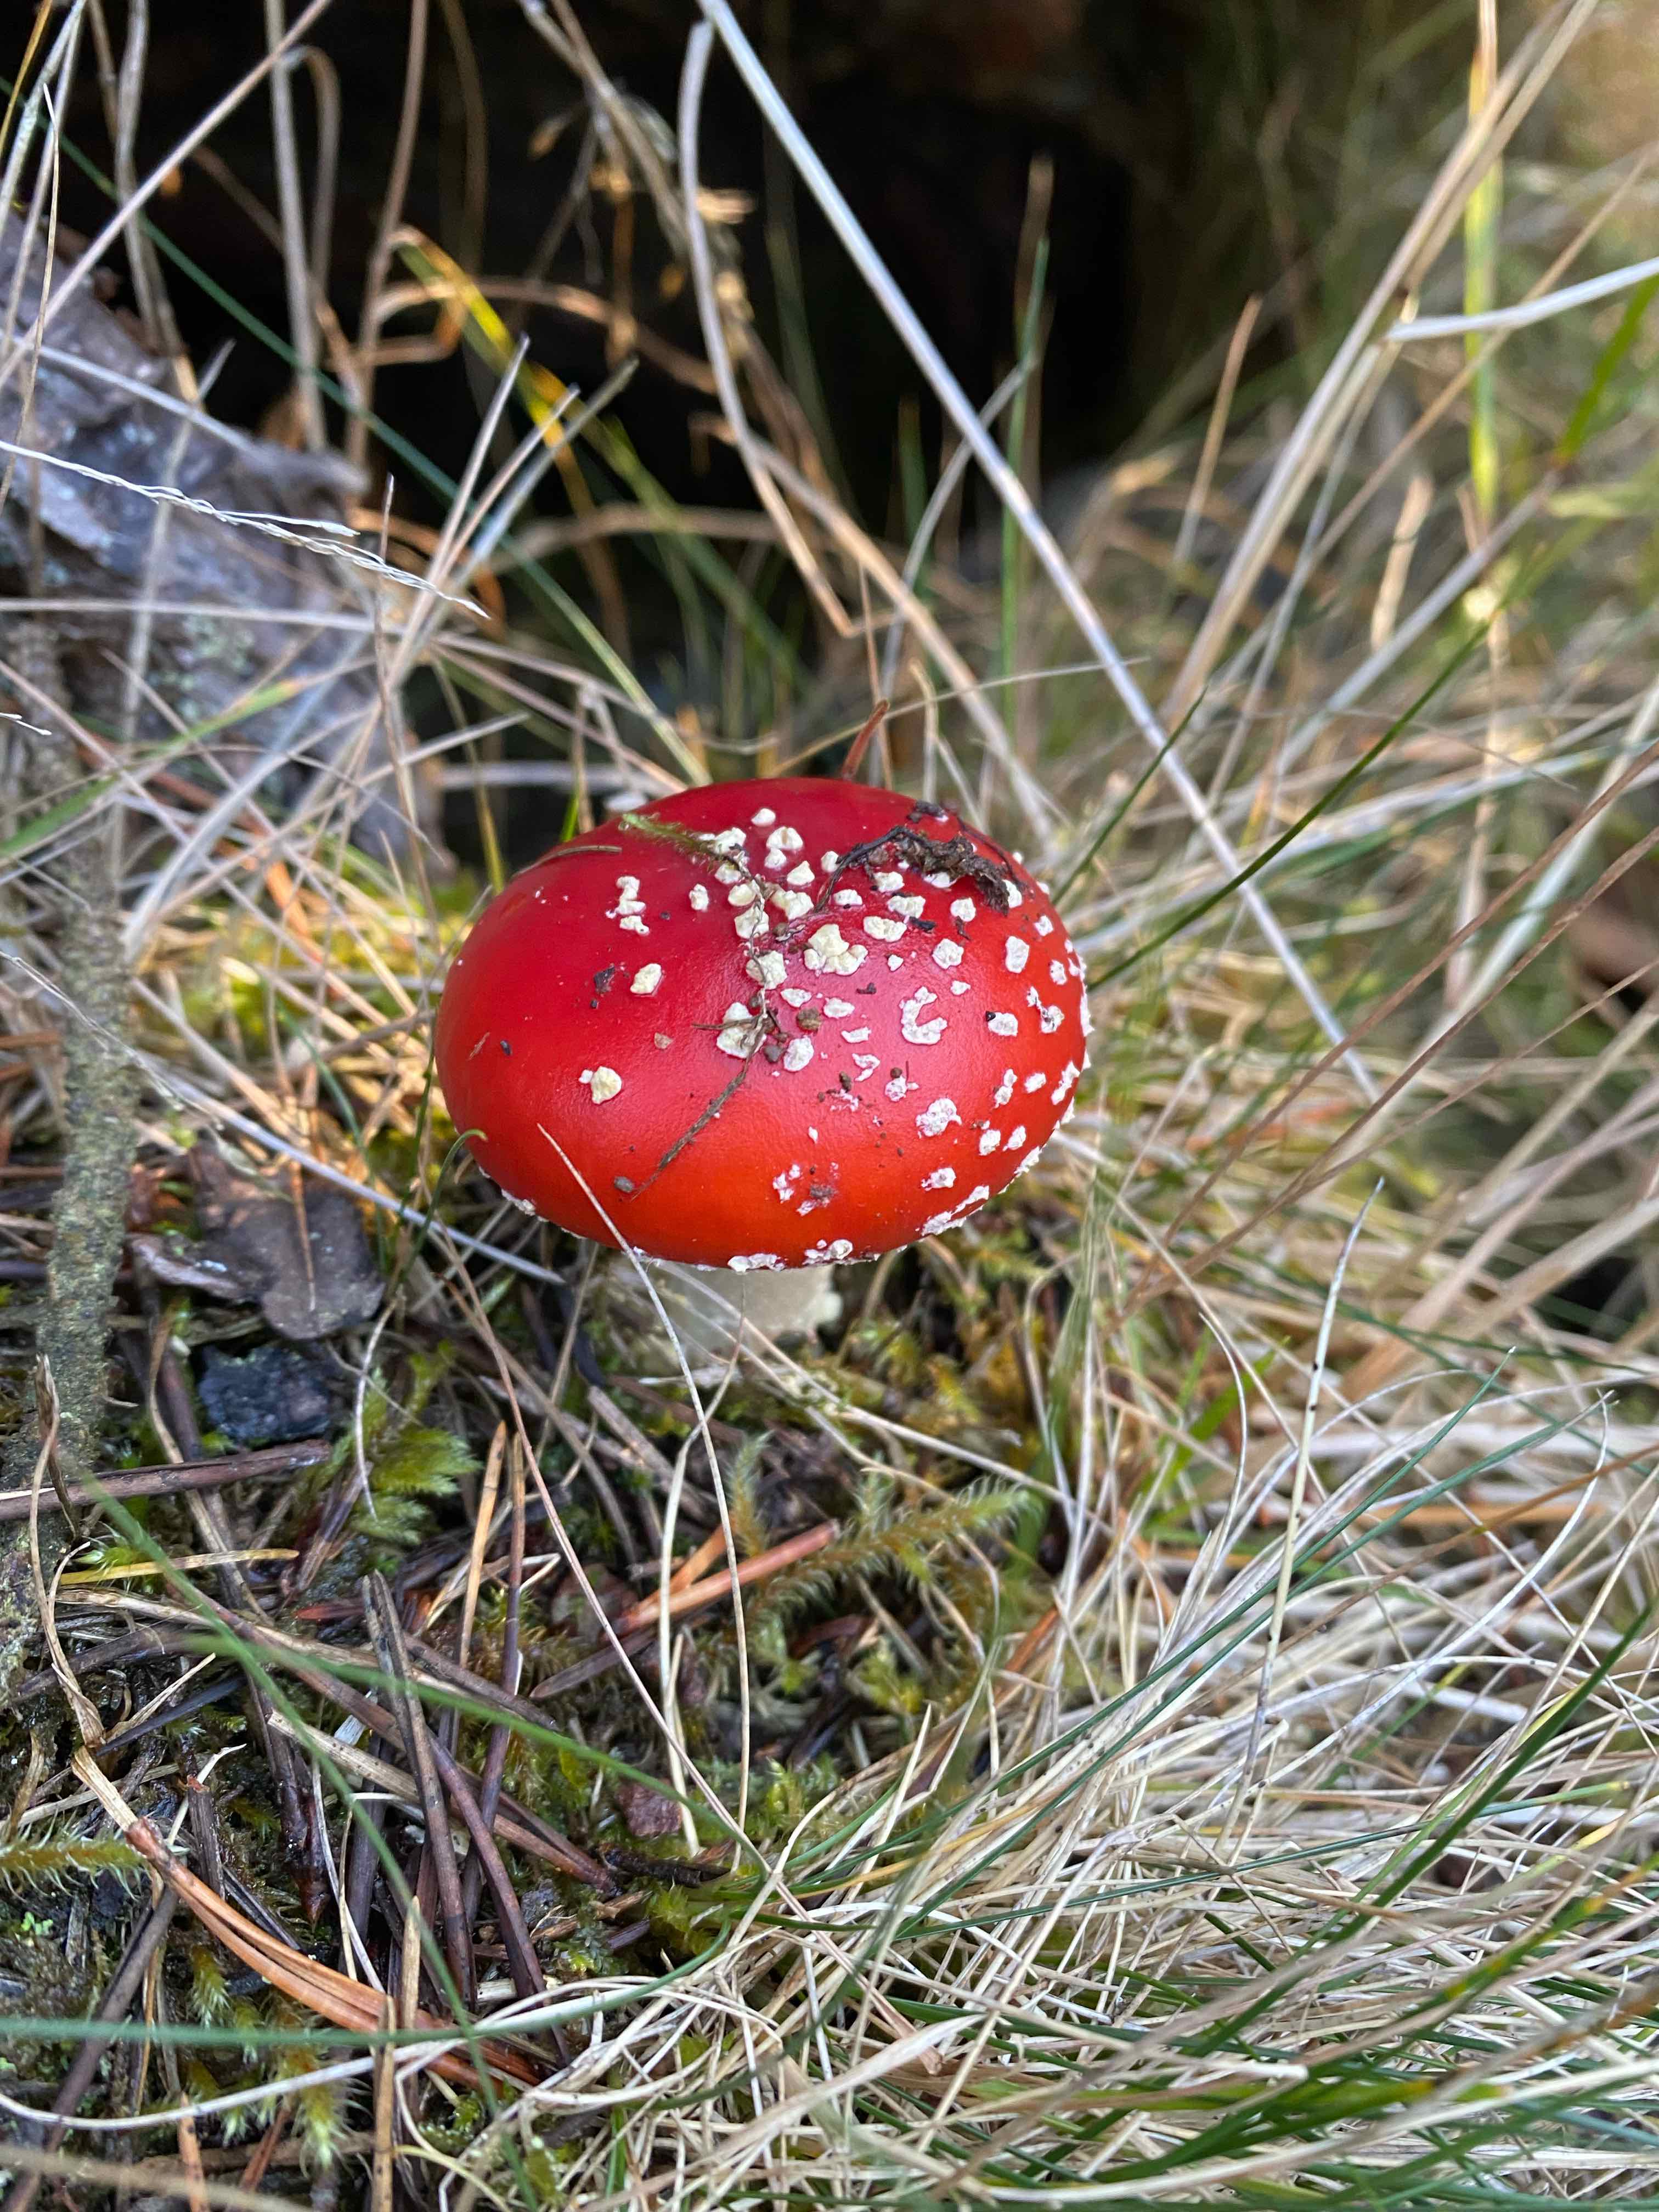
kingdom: Fungi
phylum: Basidiomycota
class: Agaricomycetes
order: Agaricales
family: Amanitaceae
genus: Amanita
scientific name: Amanita muscaria
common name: rød fluesvamp
